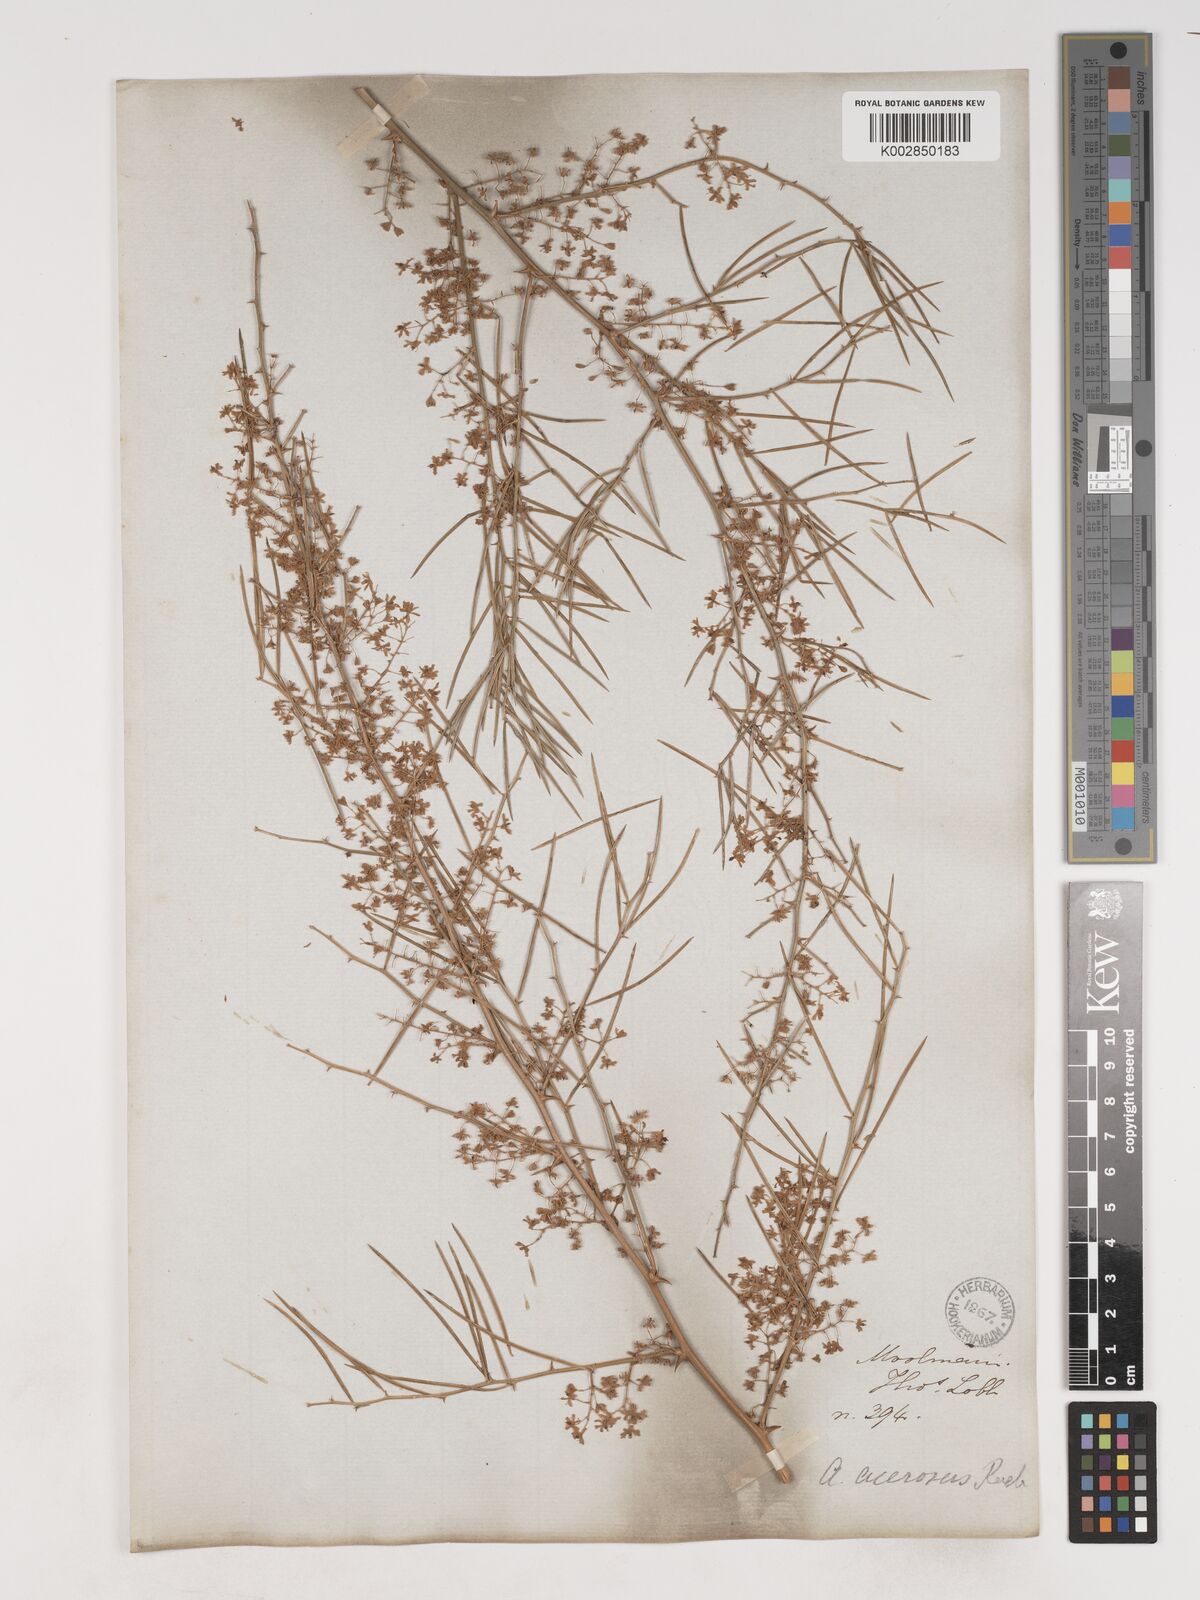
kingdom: Plantae
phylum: Tracheophyta
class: Liliopsida
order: Asparagales
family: Asparagaceae
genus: Asparagus
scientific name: Asparagus racemosus
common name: Asparagus-fern
